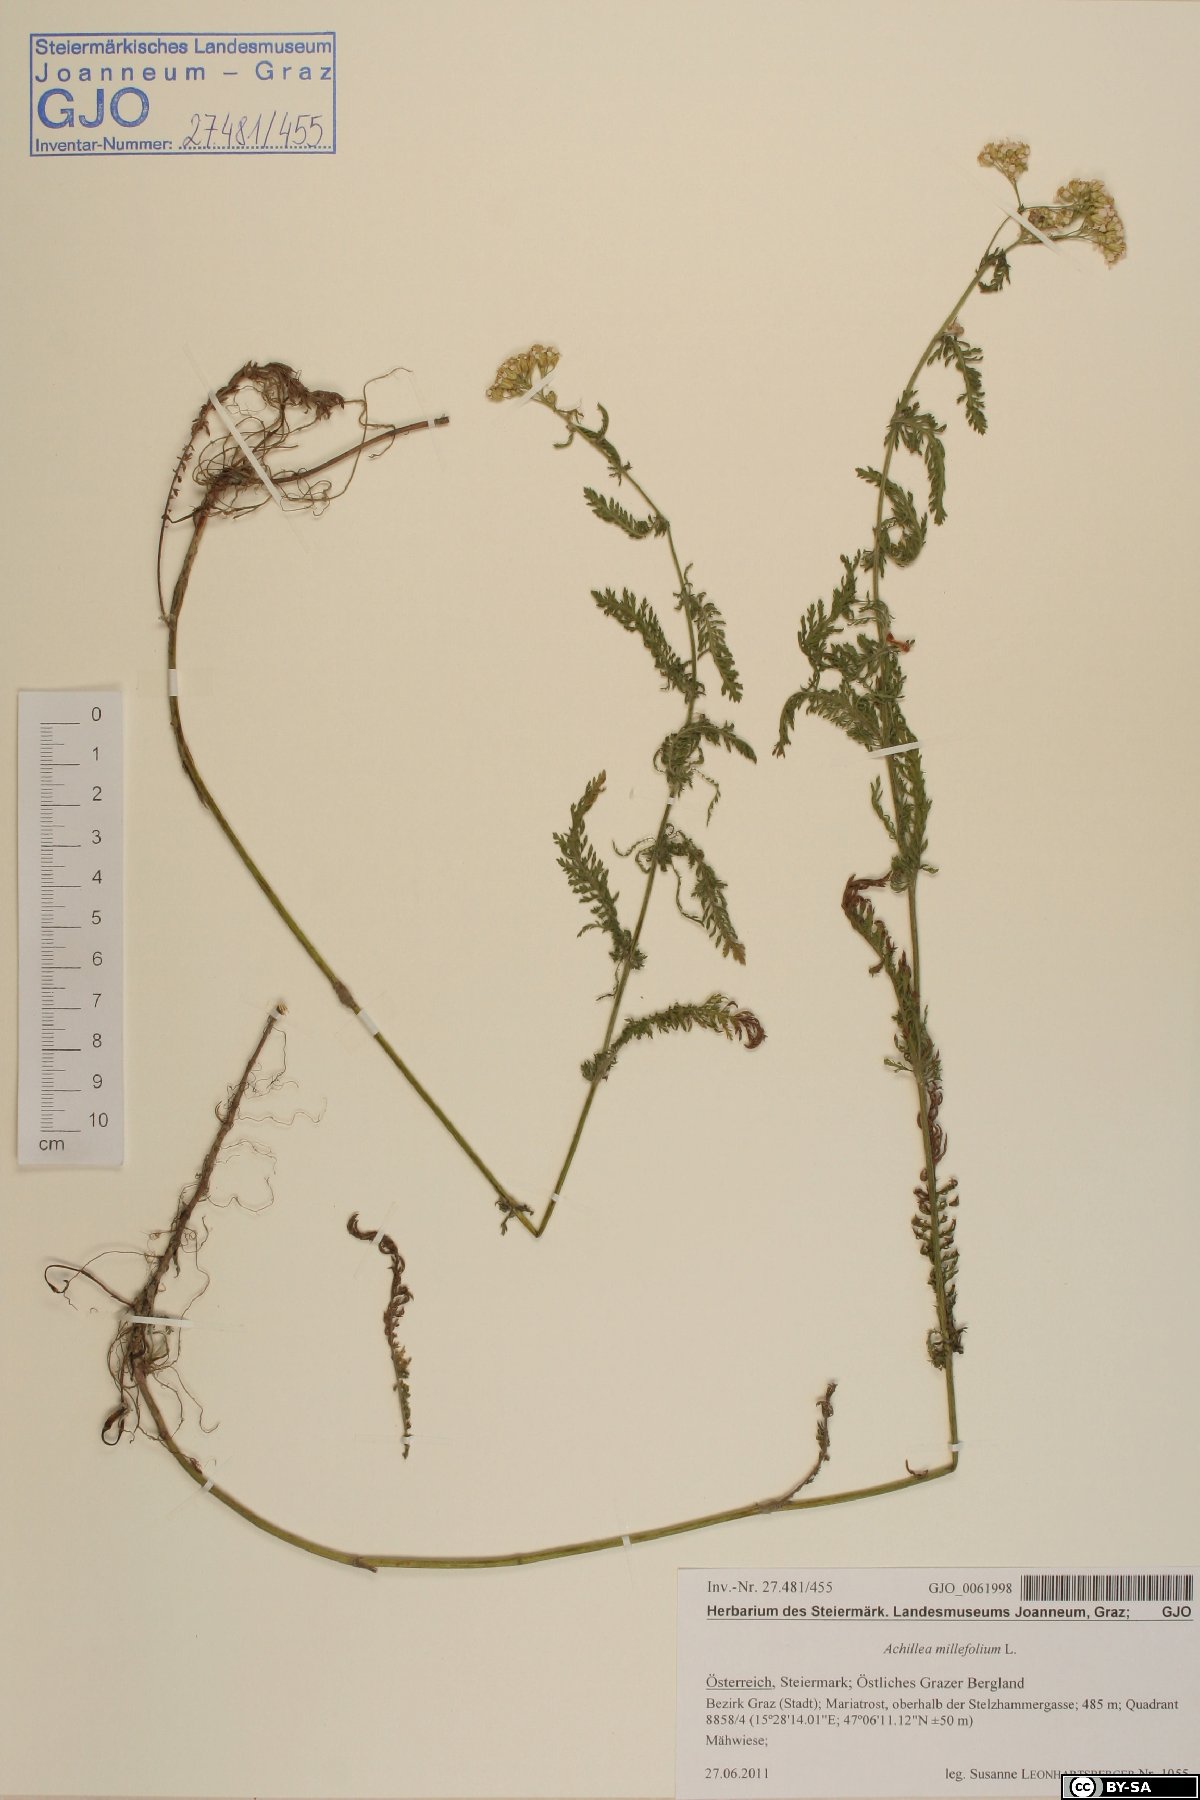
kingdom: Plantae
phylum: Tracheophyta
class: Magnoliopsida
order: Asterales
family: Asteraceae
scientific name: Asteraceae
